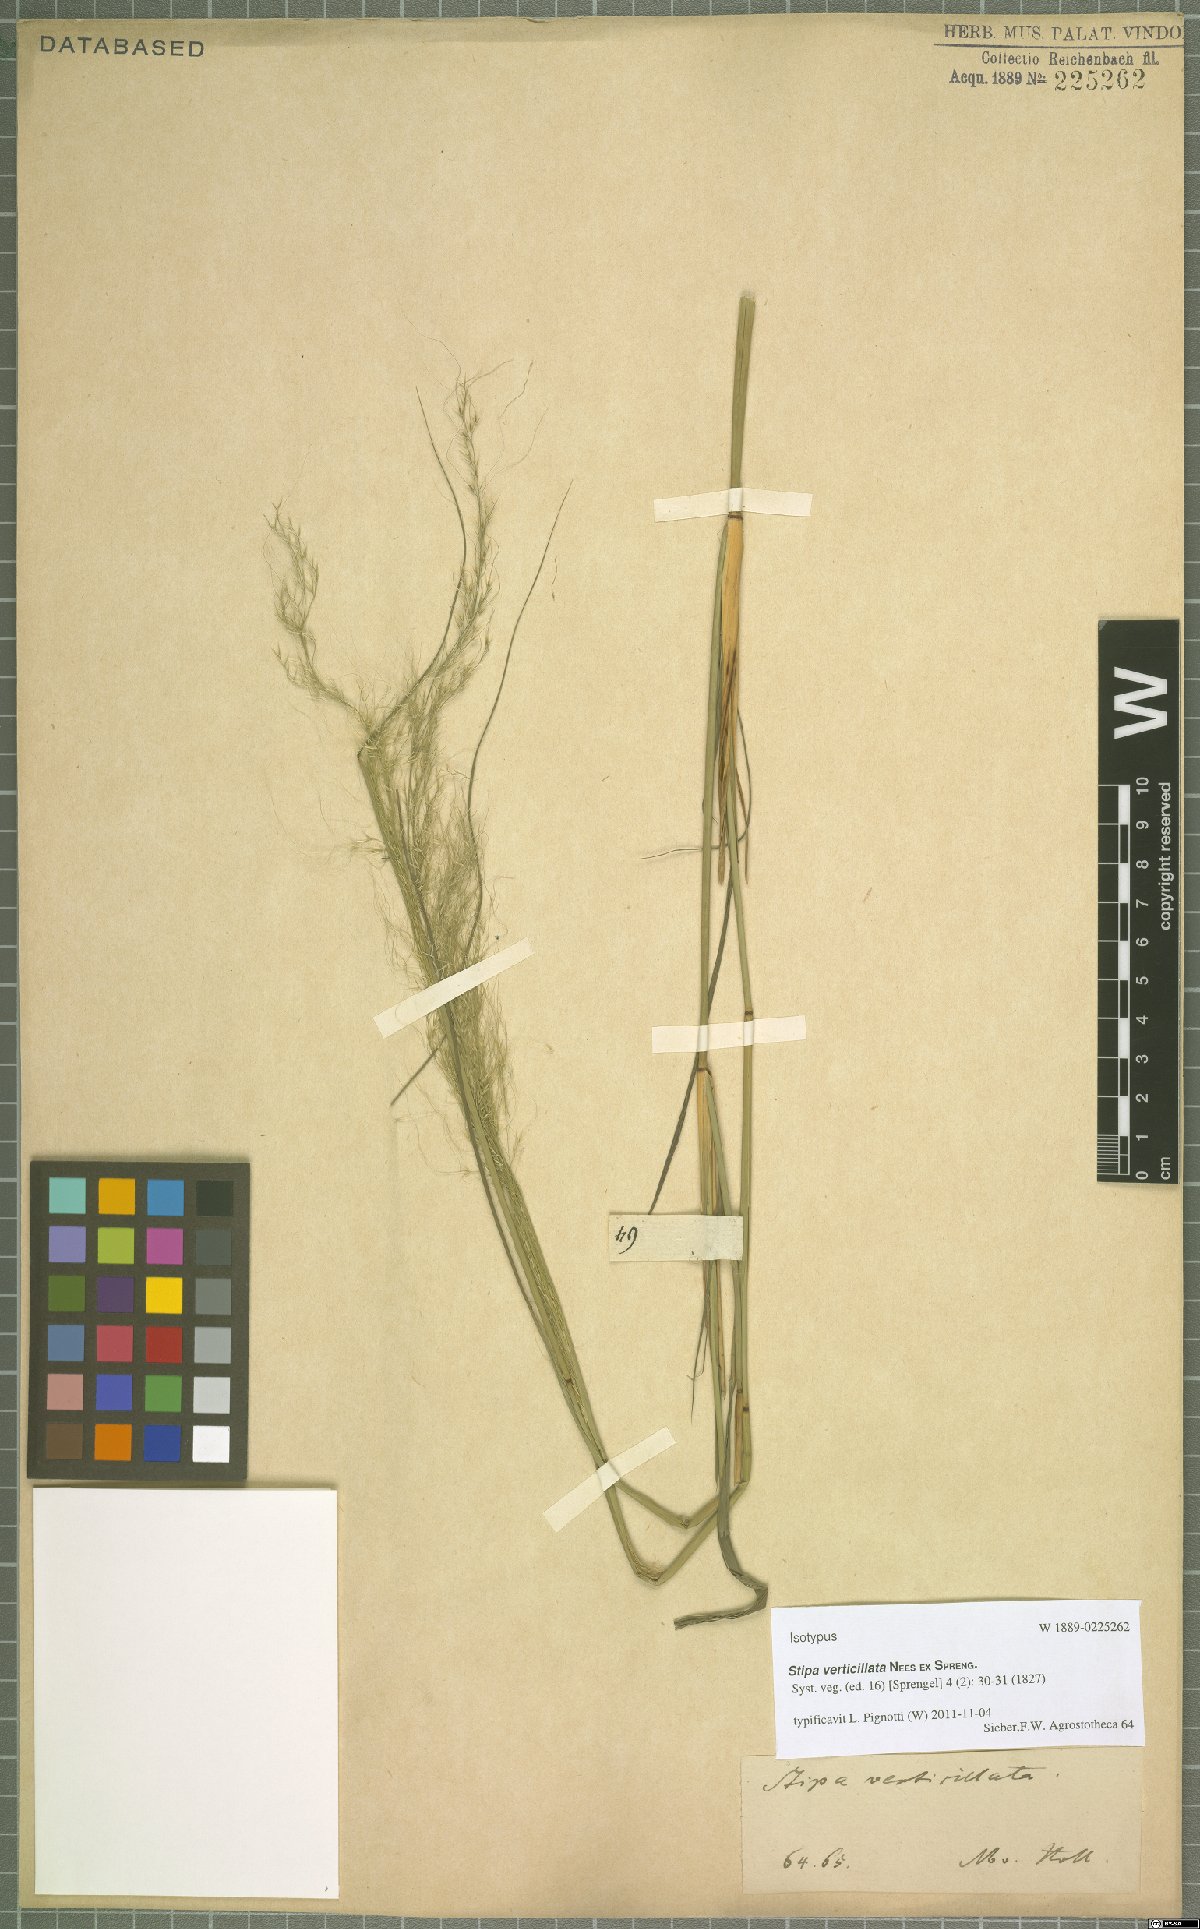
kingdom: Plantae
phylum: Tracheophyta
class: Liliopsida
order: Poales
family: Poaceae
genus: Austrostipa
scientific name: Austrostipa verticillata
